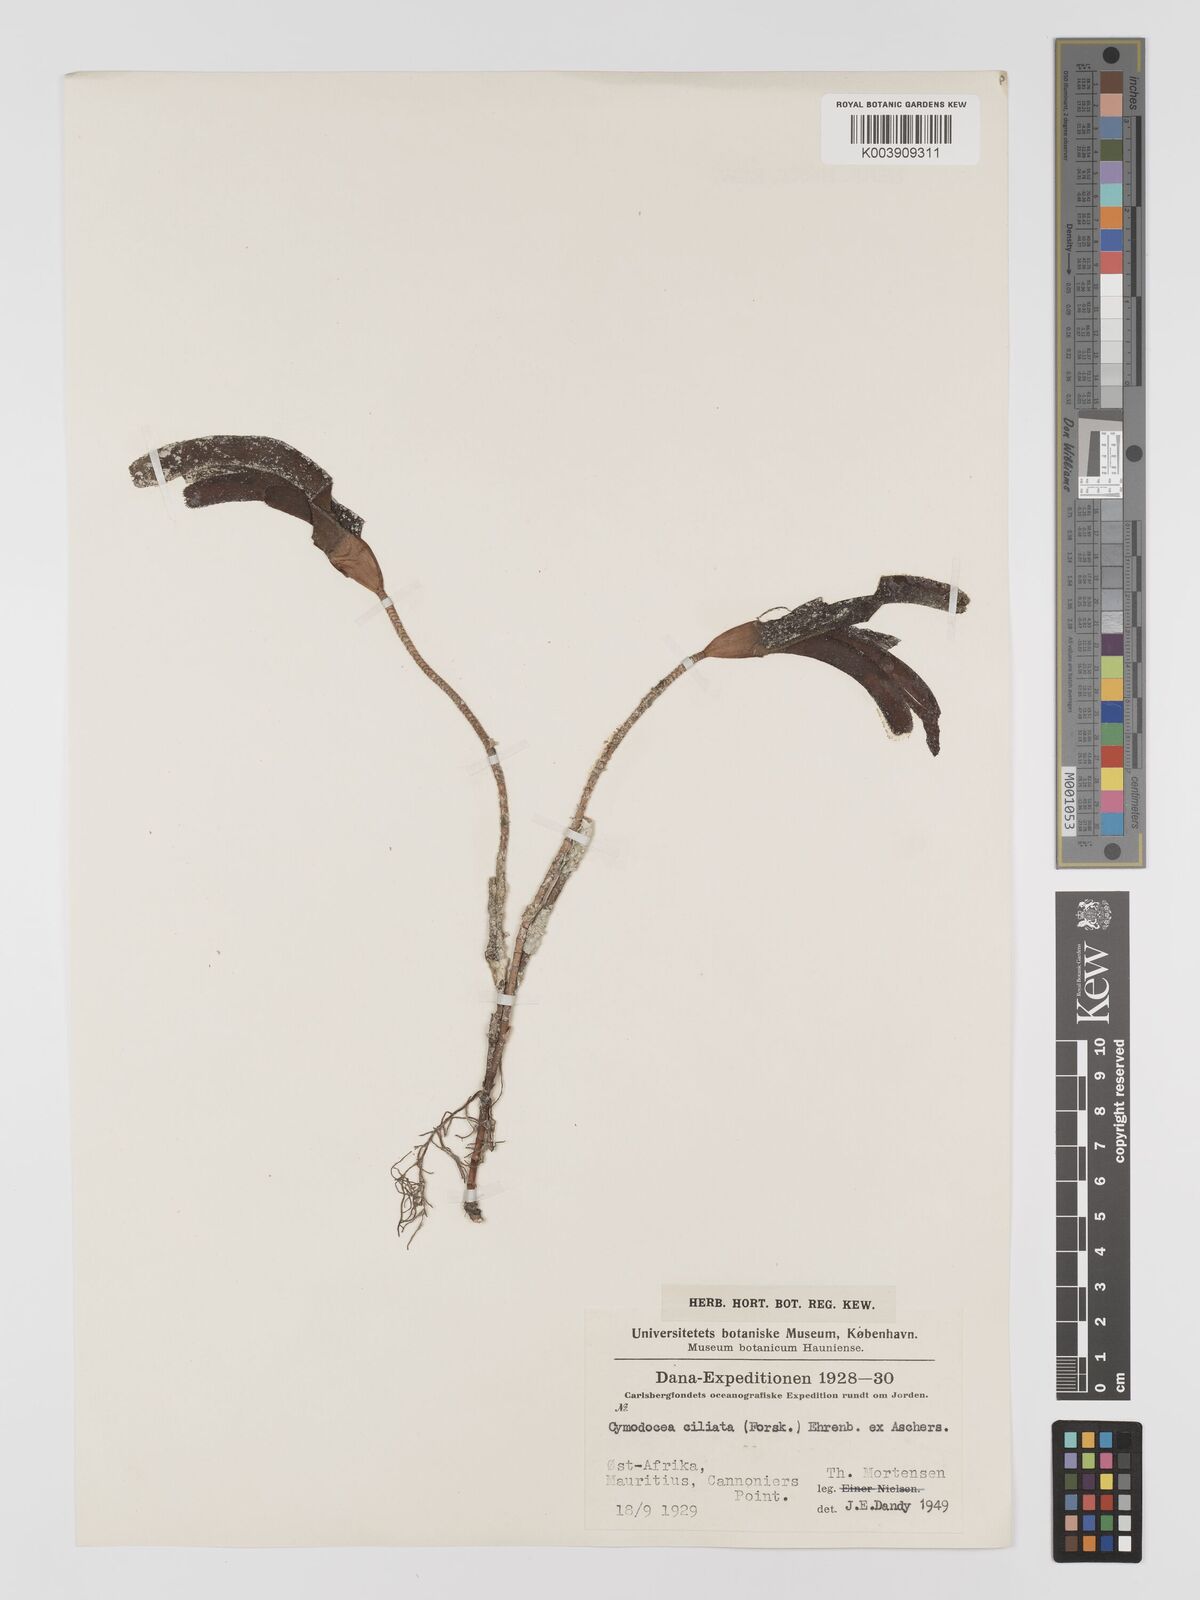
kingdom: Plantae
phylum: Tracheophyta
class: Liliopsida
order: Alismatales
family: Cymodoceaceae
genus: Thalassodendron
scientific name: Thalassodendron ciliatum
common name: Species code: tc
